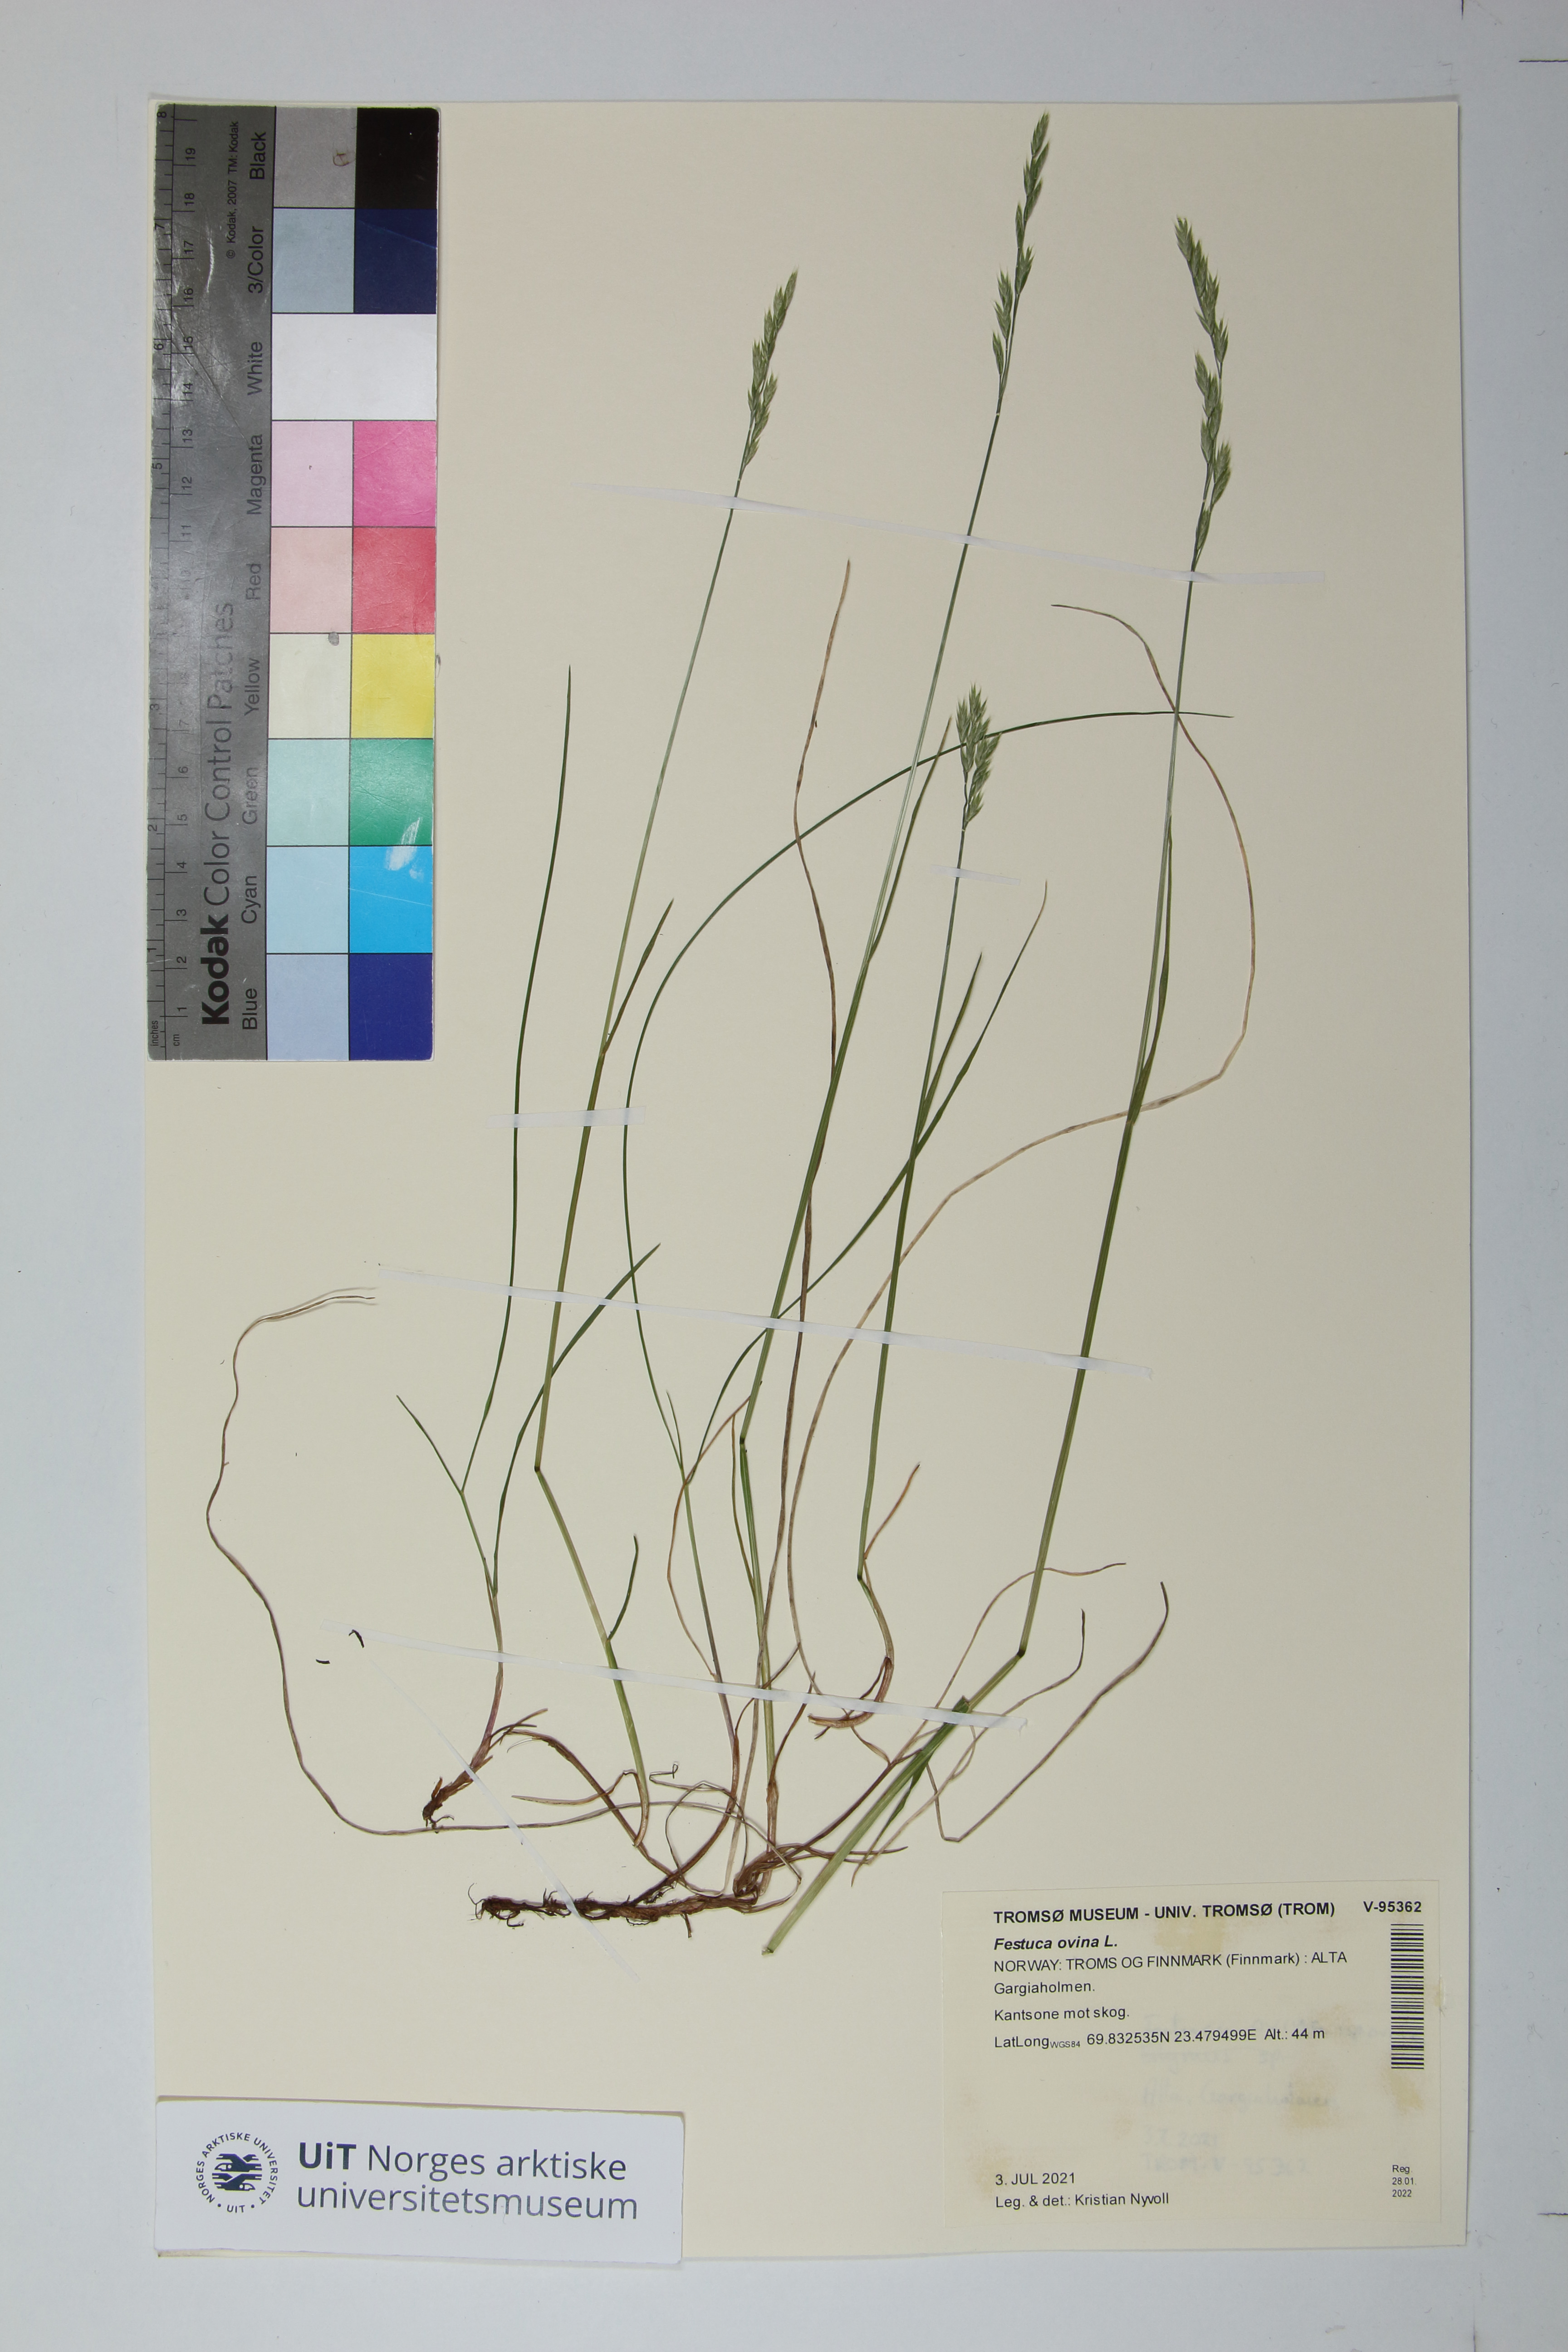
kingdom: Plantae
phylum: Tracheophyta
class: Liliopsida
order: Poales
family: Poaceae
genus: Festuca
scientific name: Festuca ovina
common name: Sheep fescue
